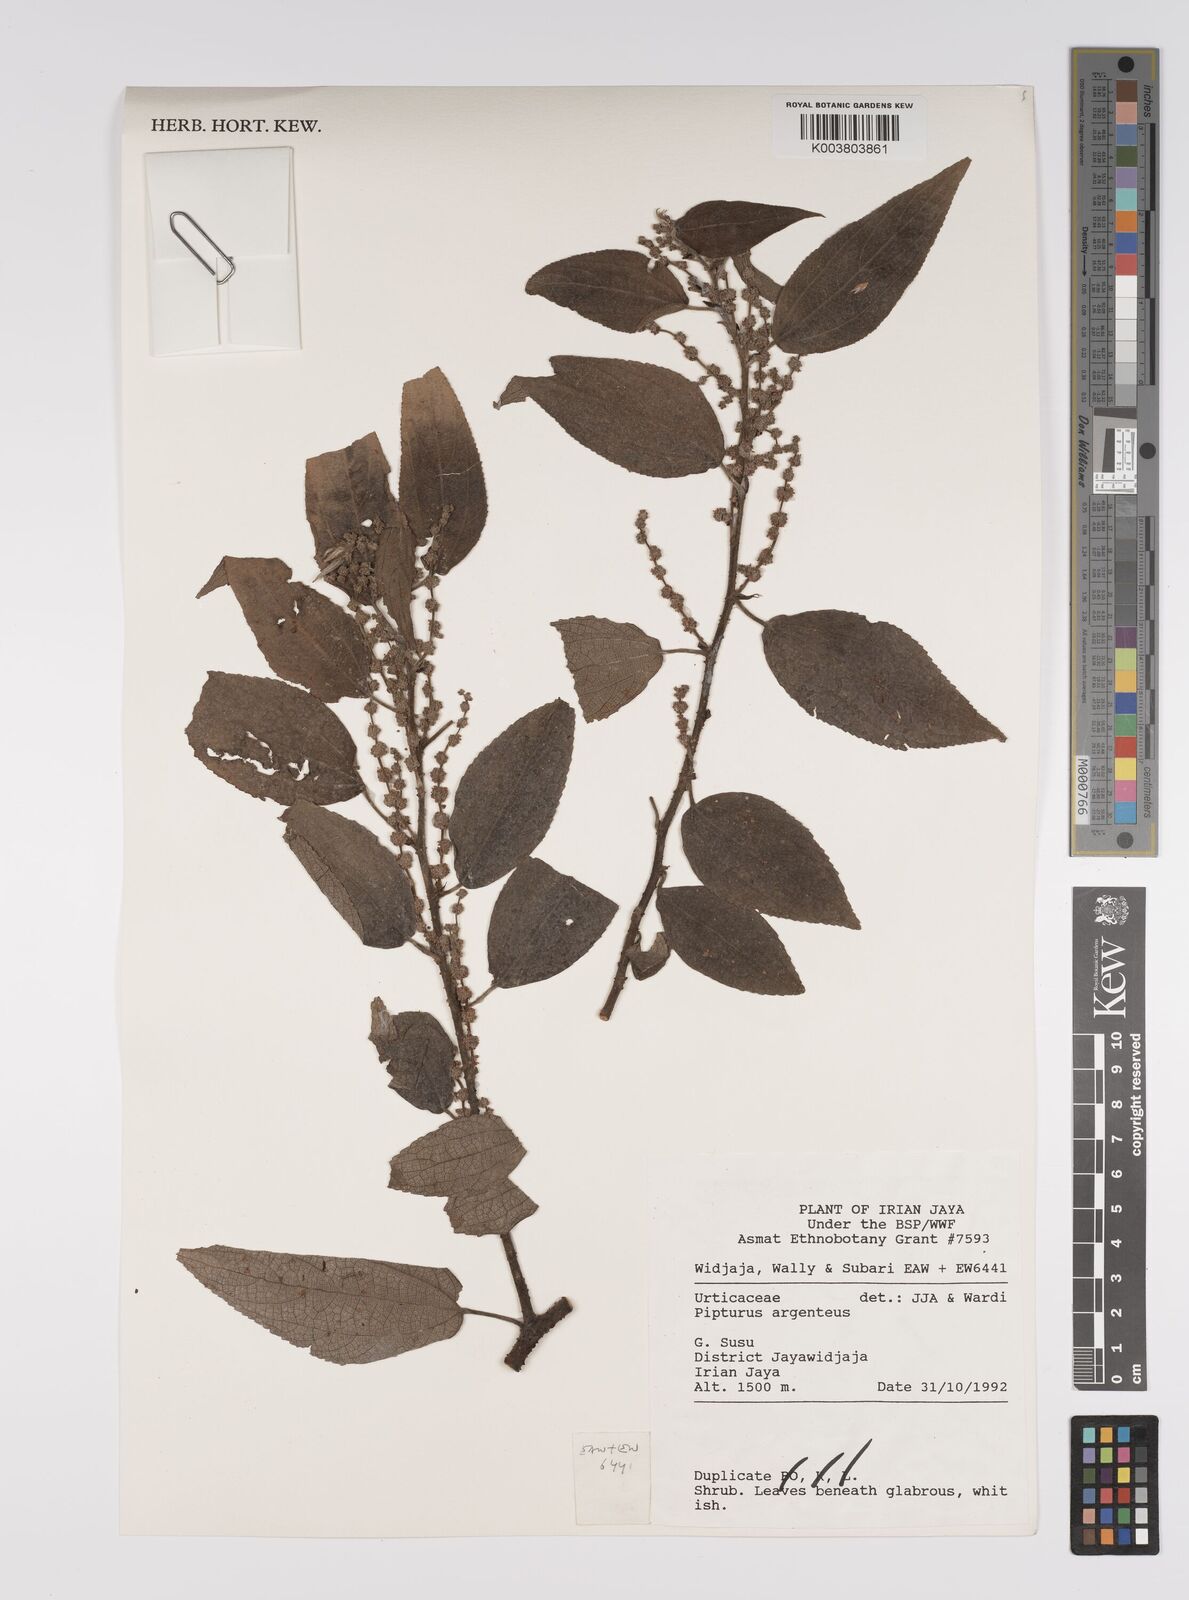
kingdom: Plantae
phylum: Tracheophyta
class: Magnoliopsida
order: Rosales
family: Urticaceae
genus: Pipturus
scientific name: Pipturus argenteus
